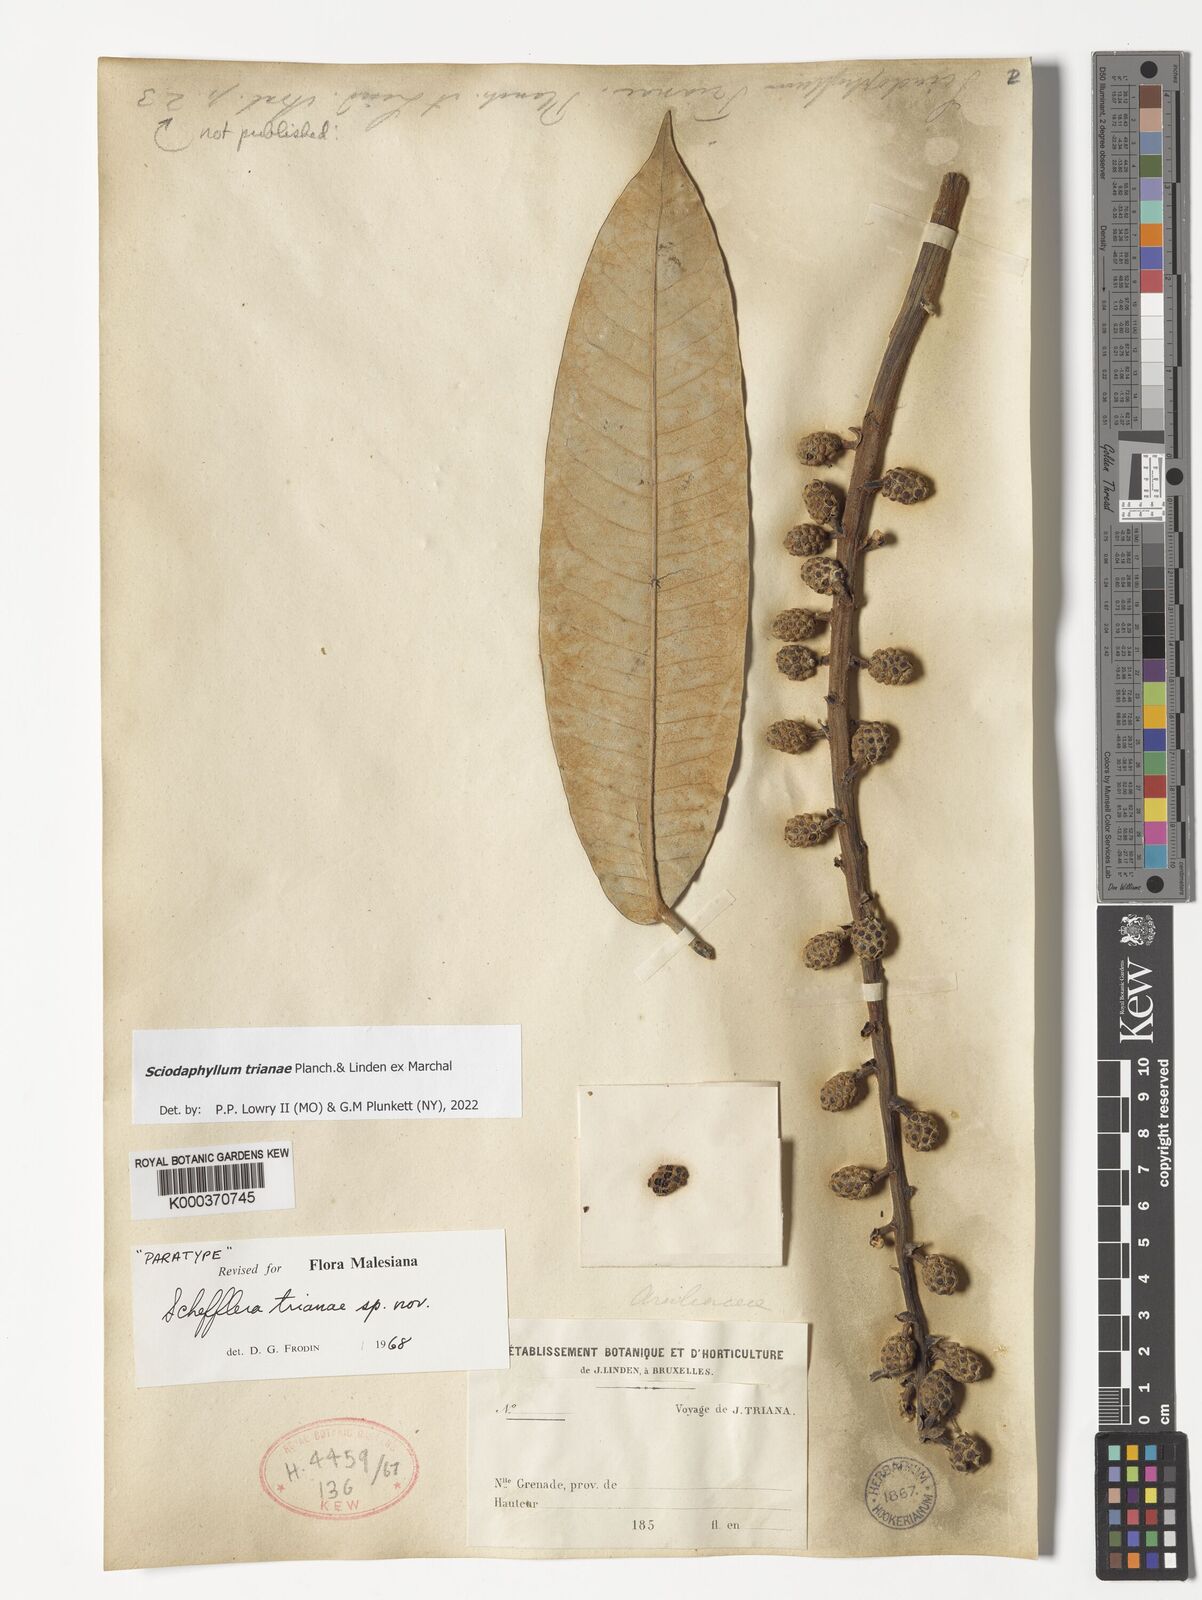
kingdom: Plantae
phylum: Tracheophyta
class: Magnoliopsida
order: Apiales
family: Araliaceae
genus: Sciodaphyllum
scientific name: Sciodaphyllum trianae
